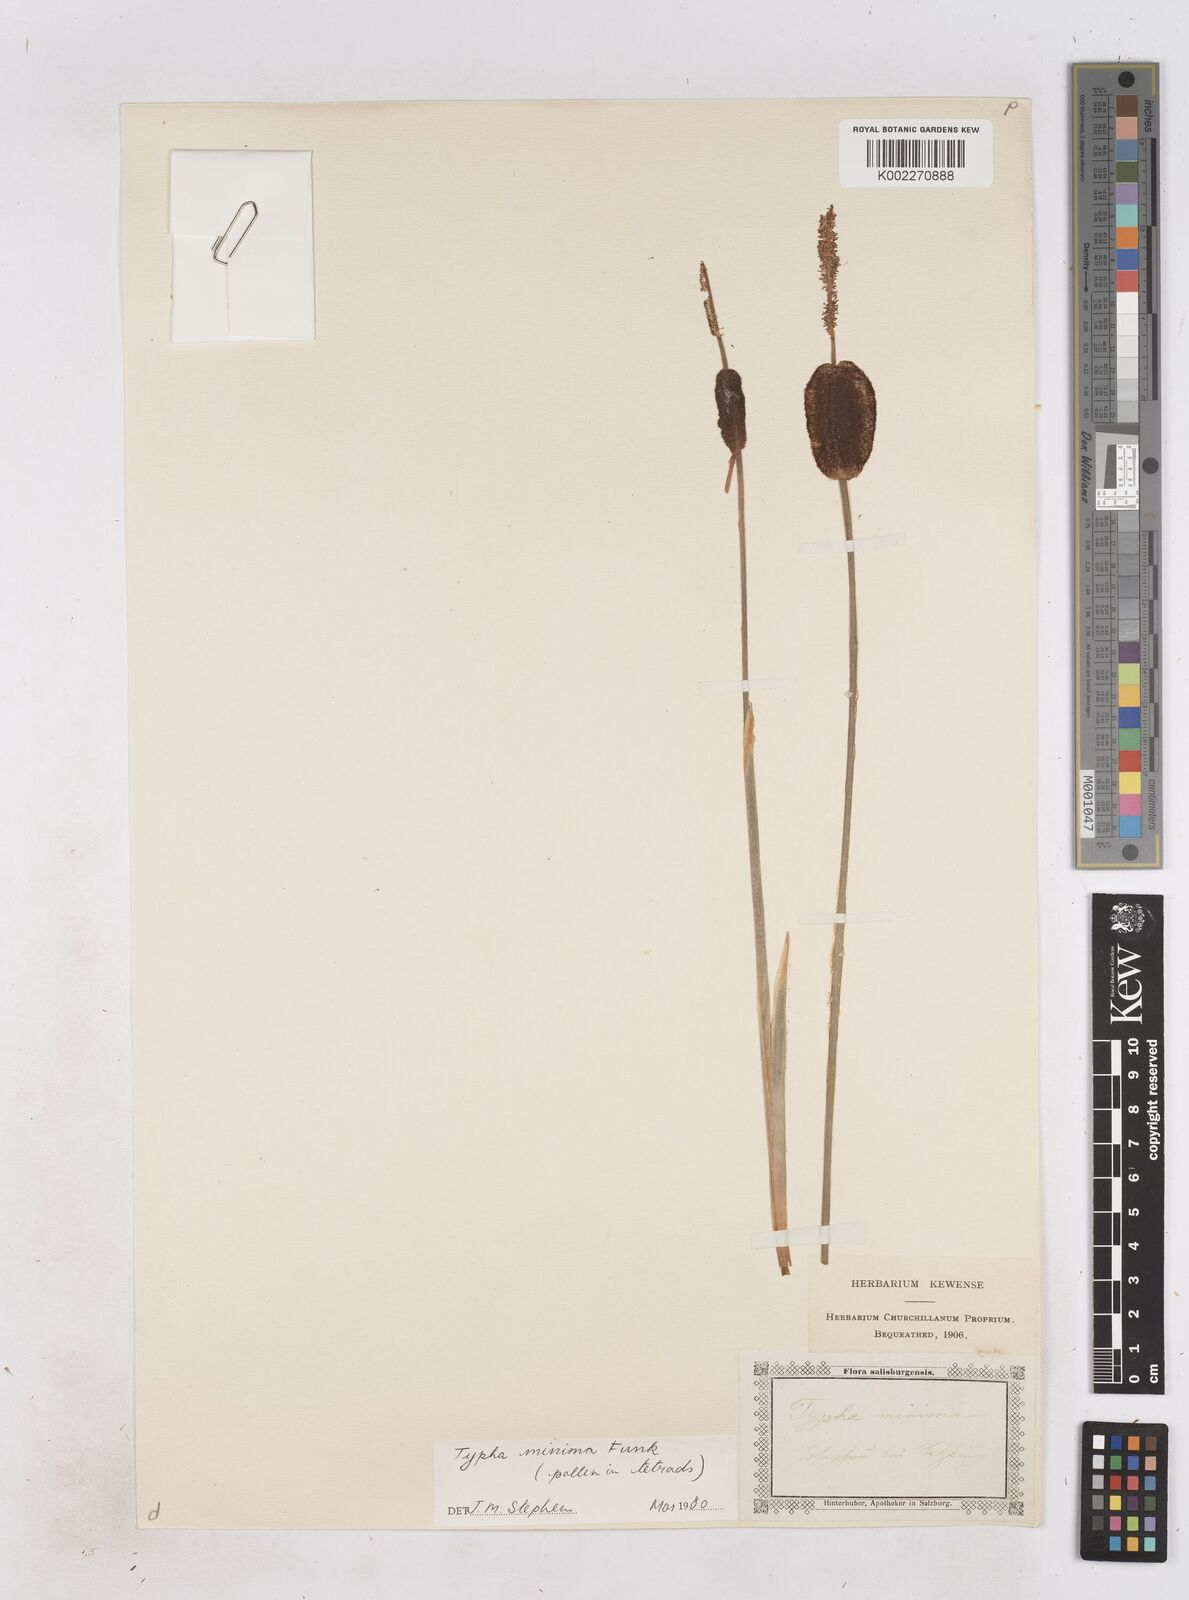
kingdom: Plantae
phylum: Tracheophyta
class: Liliopsida
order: Poales
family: Typhaceae
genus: Typha
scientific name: Typha minima
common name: Dwarf bulrush
